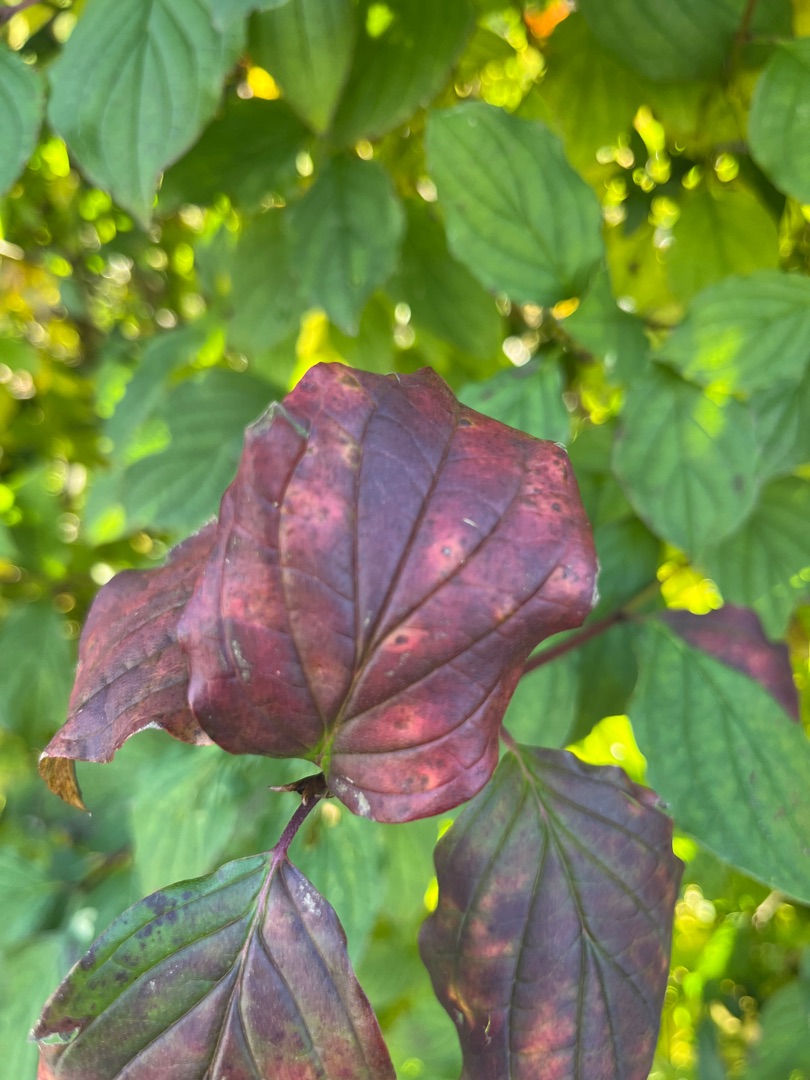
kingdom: Plantae
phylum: Tracheophyta
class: Magnoliopsida
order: Cornales
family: Cornaceae
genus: Cornus
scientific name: Cornus sanguinea
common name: Rød kornel
